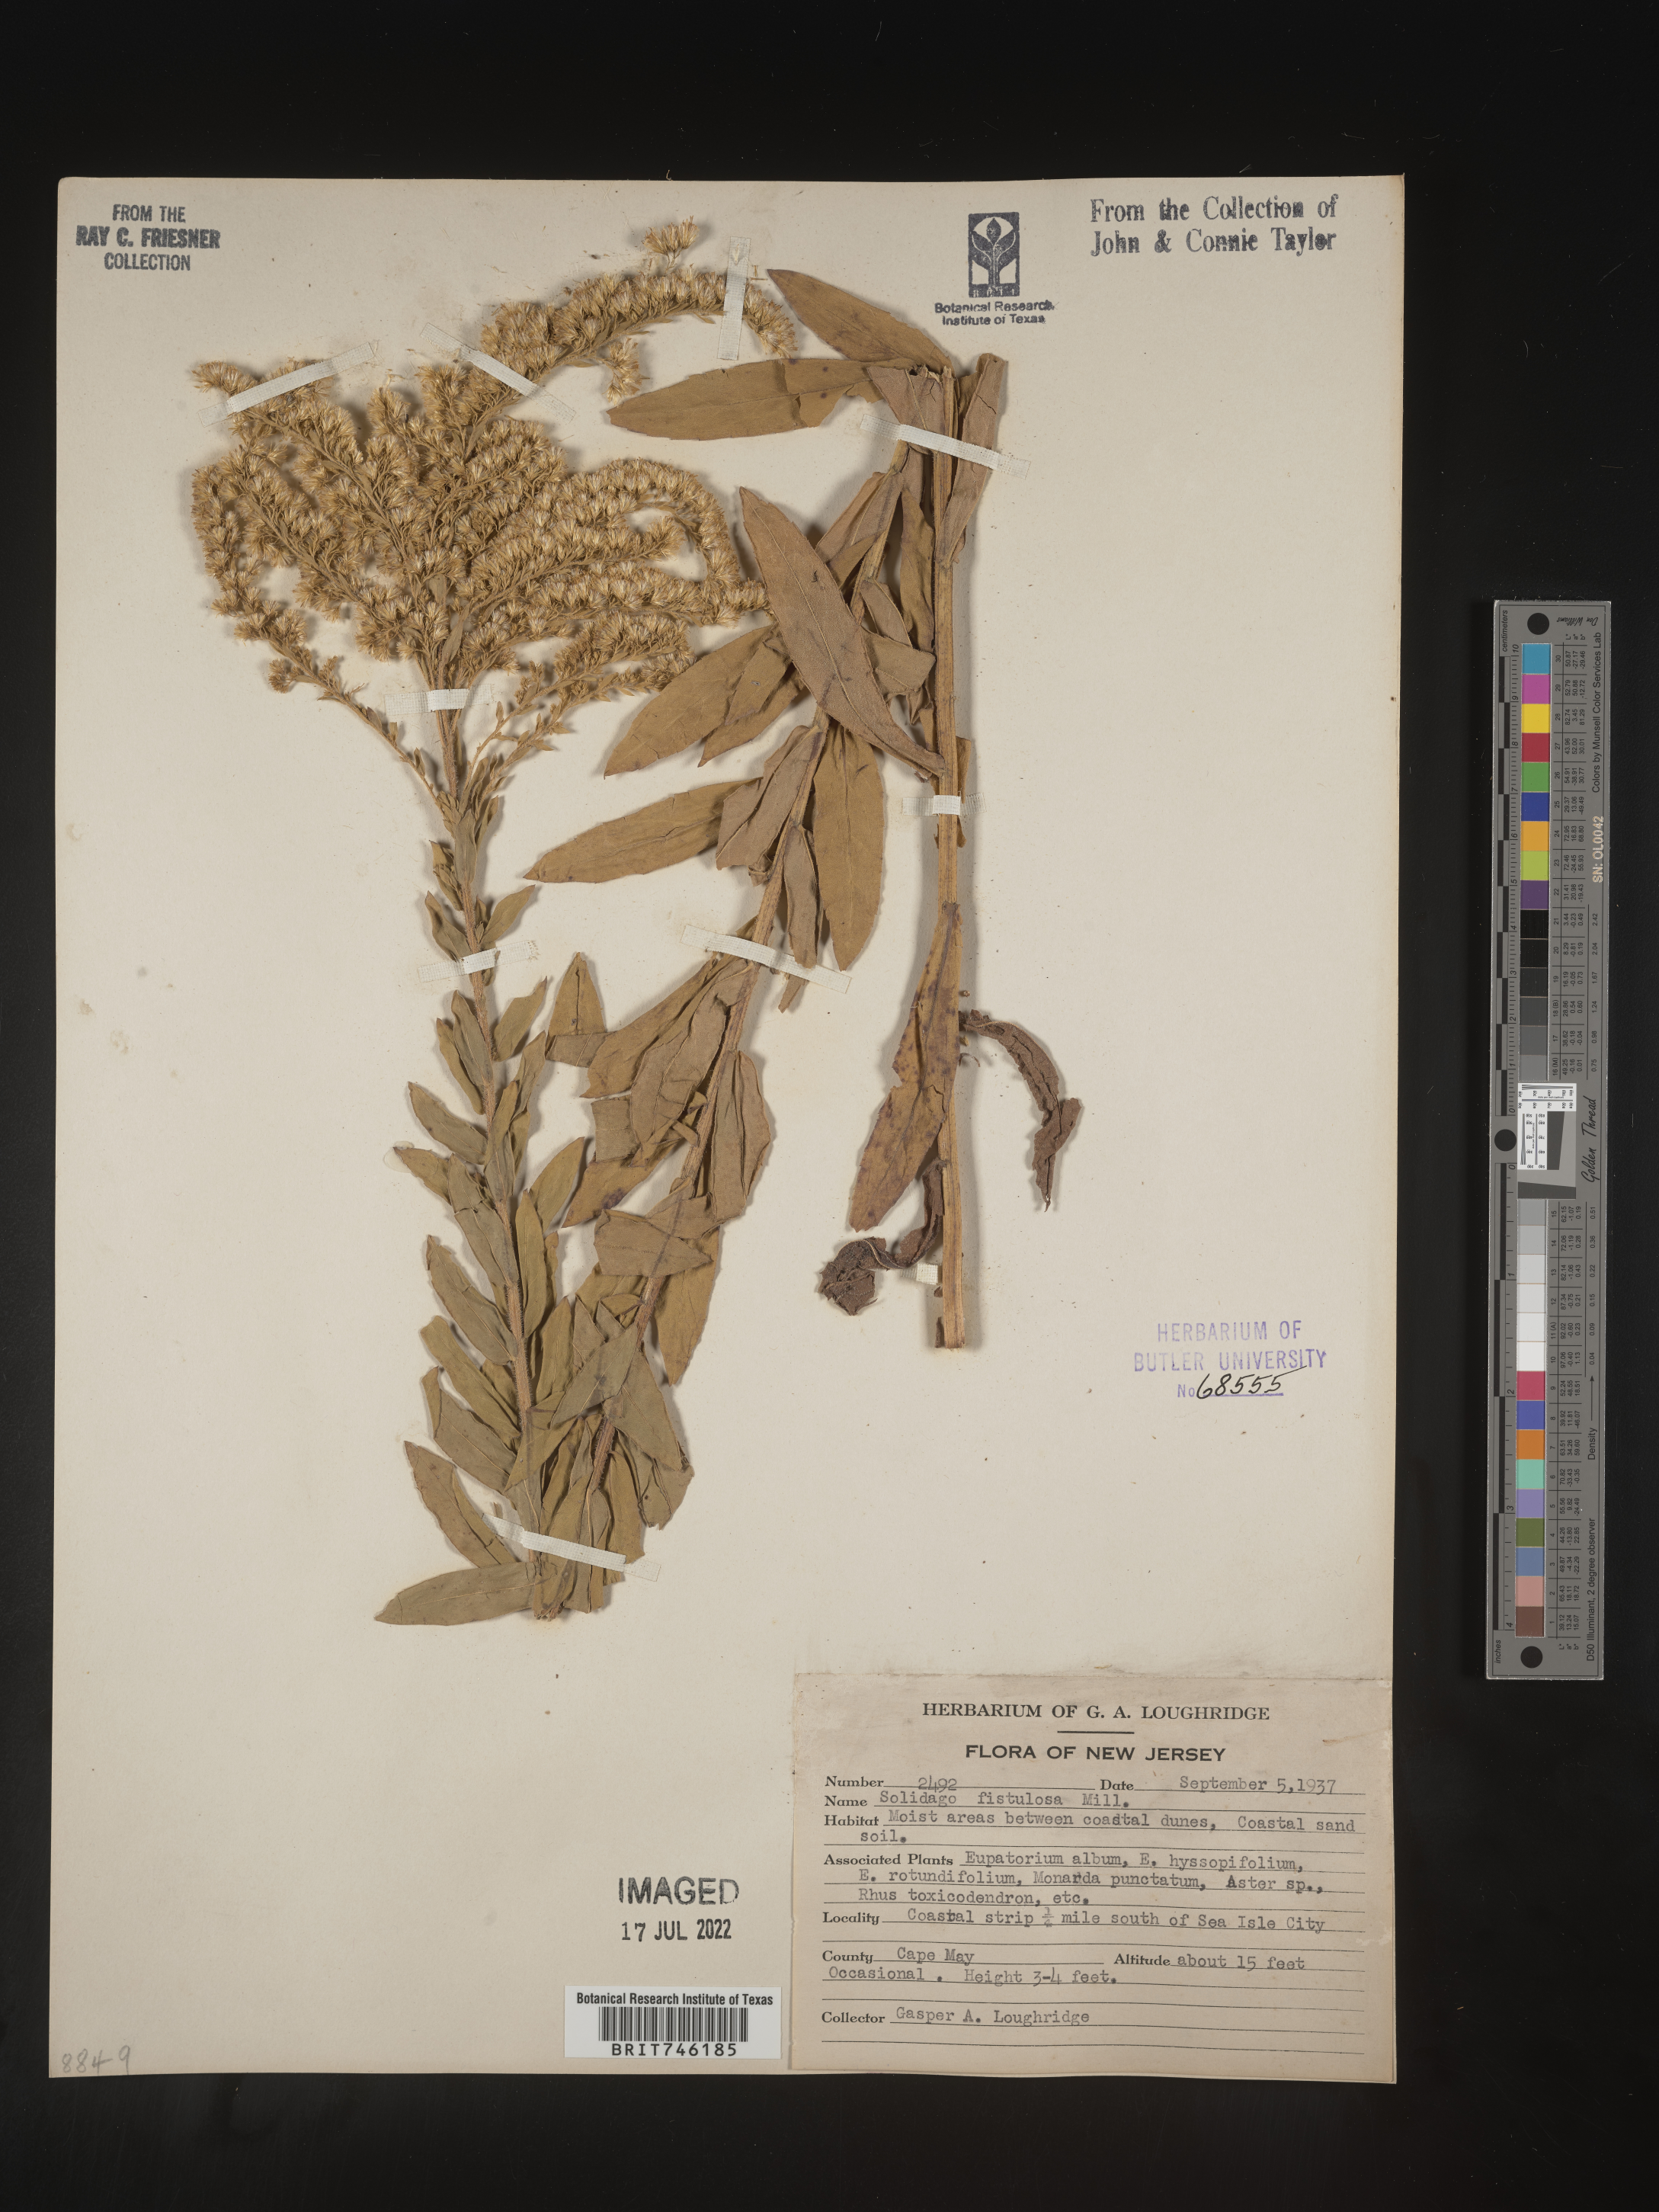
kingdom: Plantae
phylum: Tracheophyta
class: Magnoliopsida
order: Asterales
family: Asteraceae
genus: Solidago
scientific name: Solidago fistulosa
